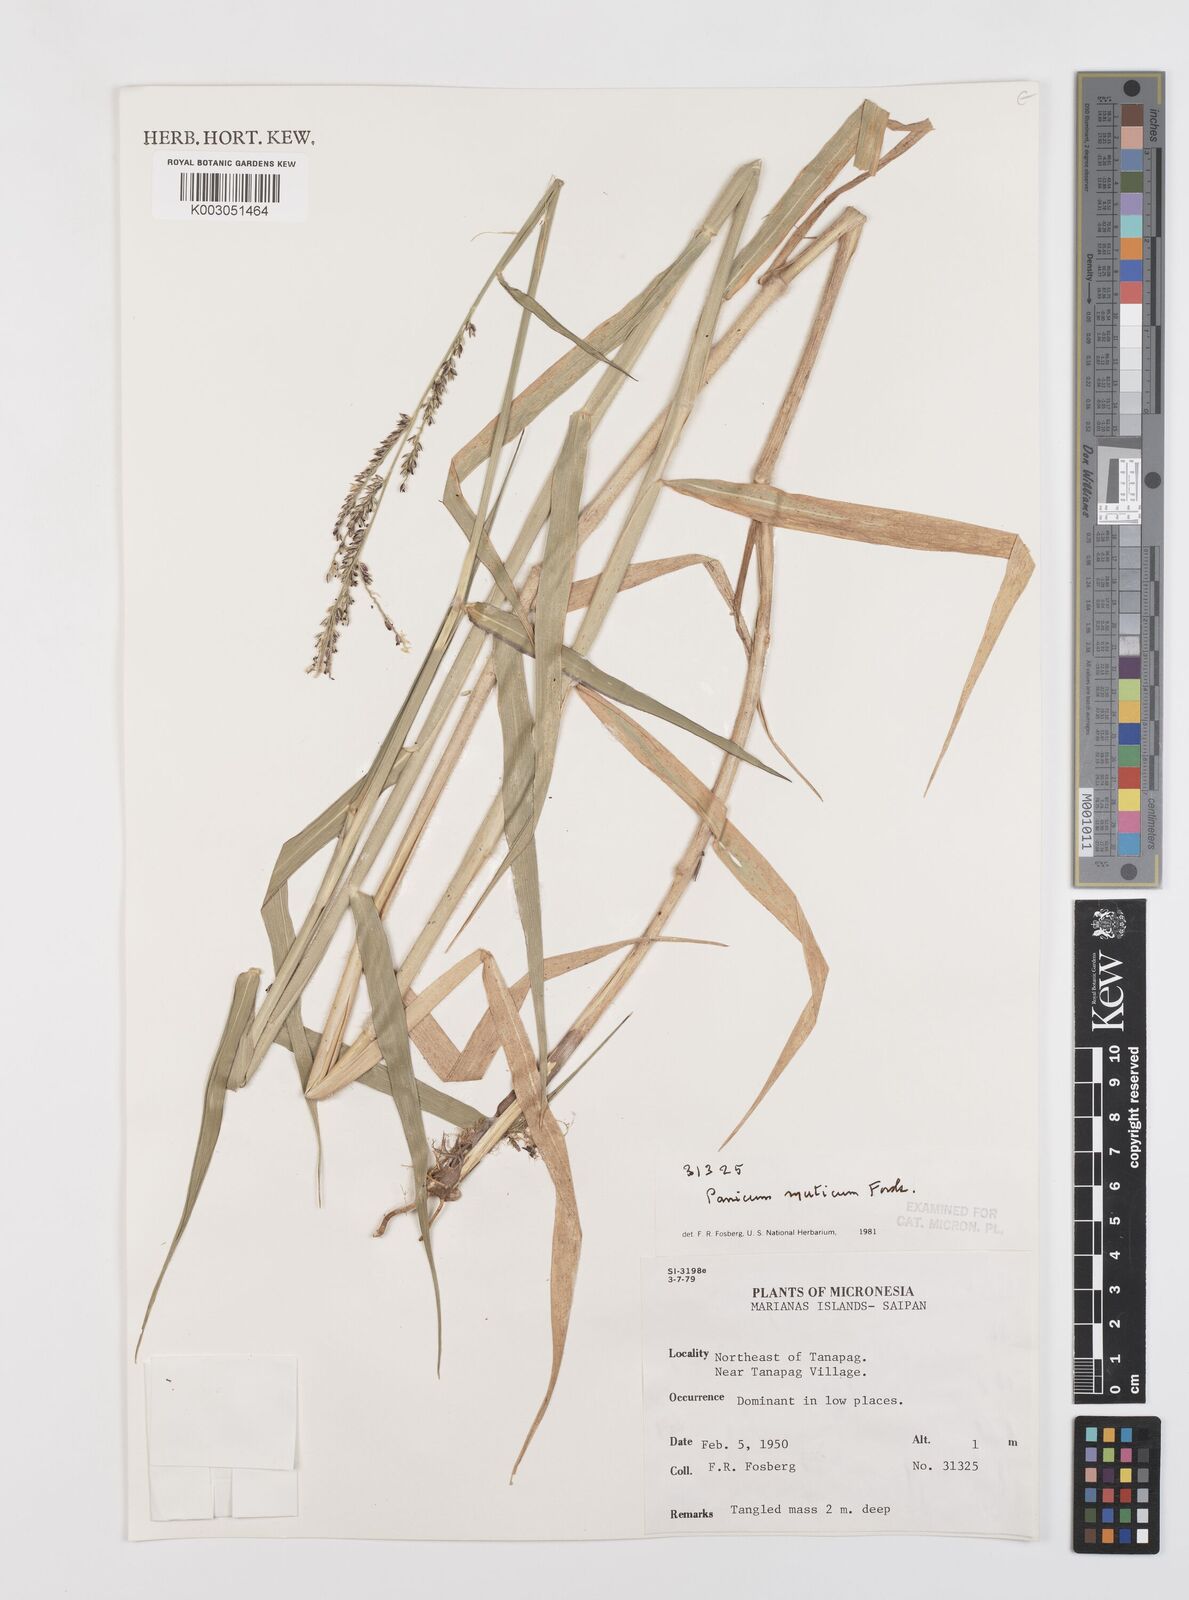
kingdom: Plantae
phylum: Tracheophyta
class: Liliopsida
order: Poales
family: Poaceae
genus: Urochloa
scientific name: Urochloa mutica
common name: Para grass
